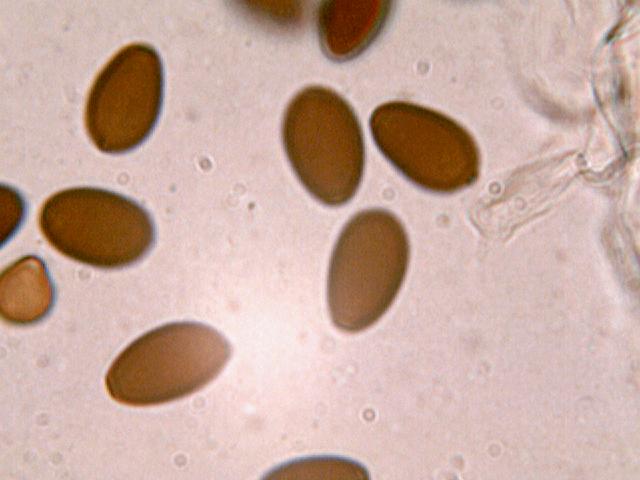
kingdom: Fungi
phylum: Basidiomycota
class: Agaricomycetes
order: Agaricales
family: Psathyrellaceae
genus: Parasola
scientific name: Parasola auricoma
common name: hansens hjulhat
